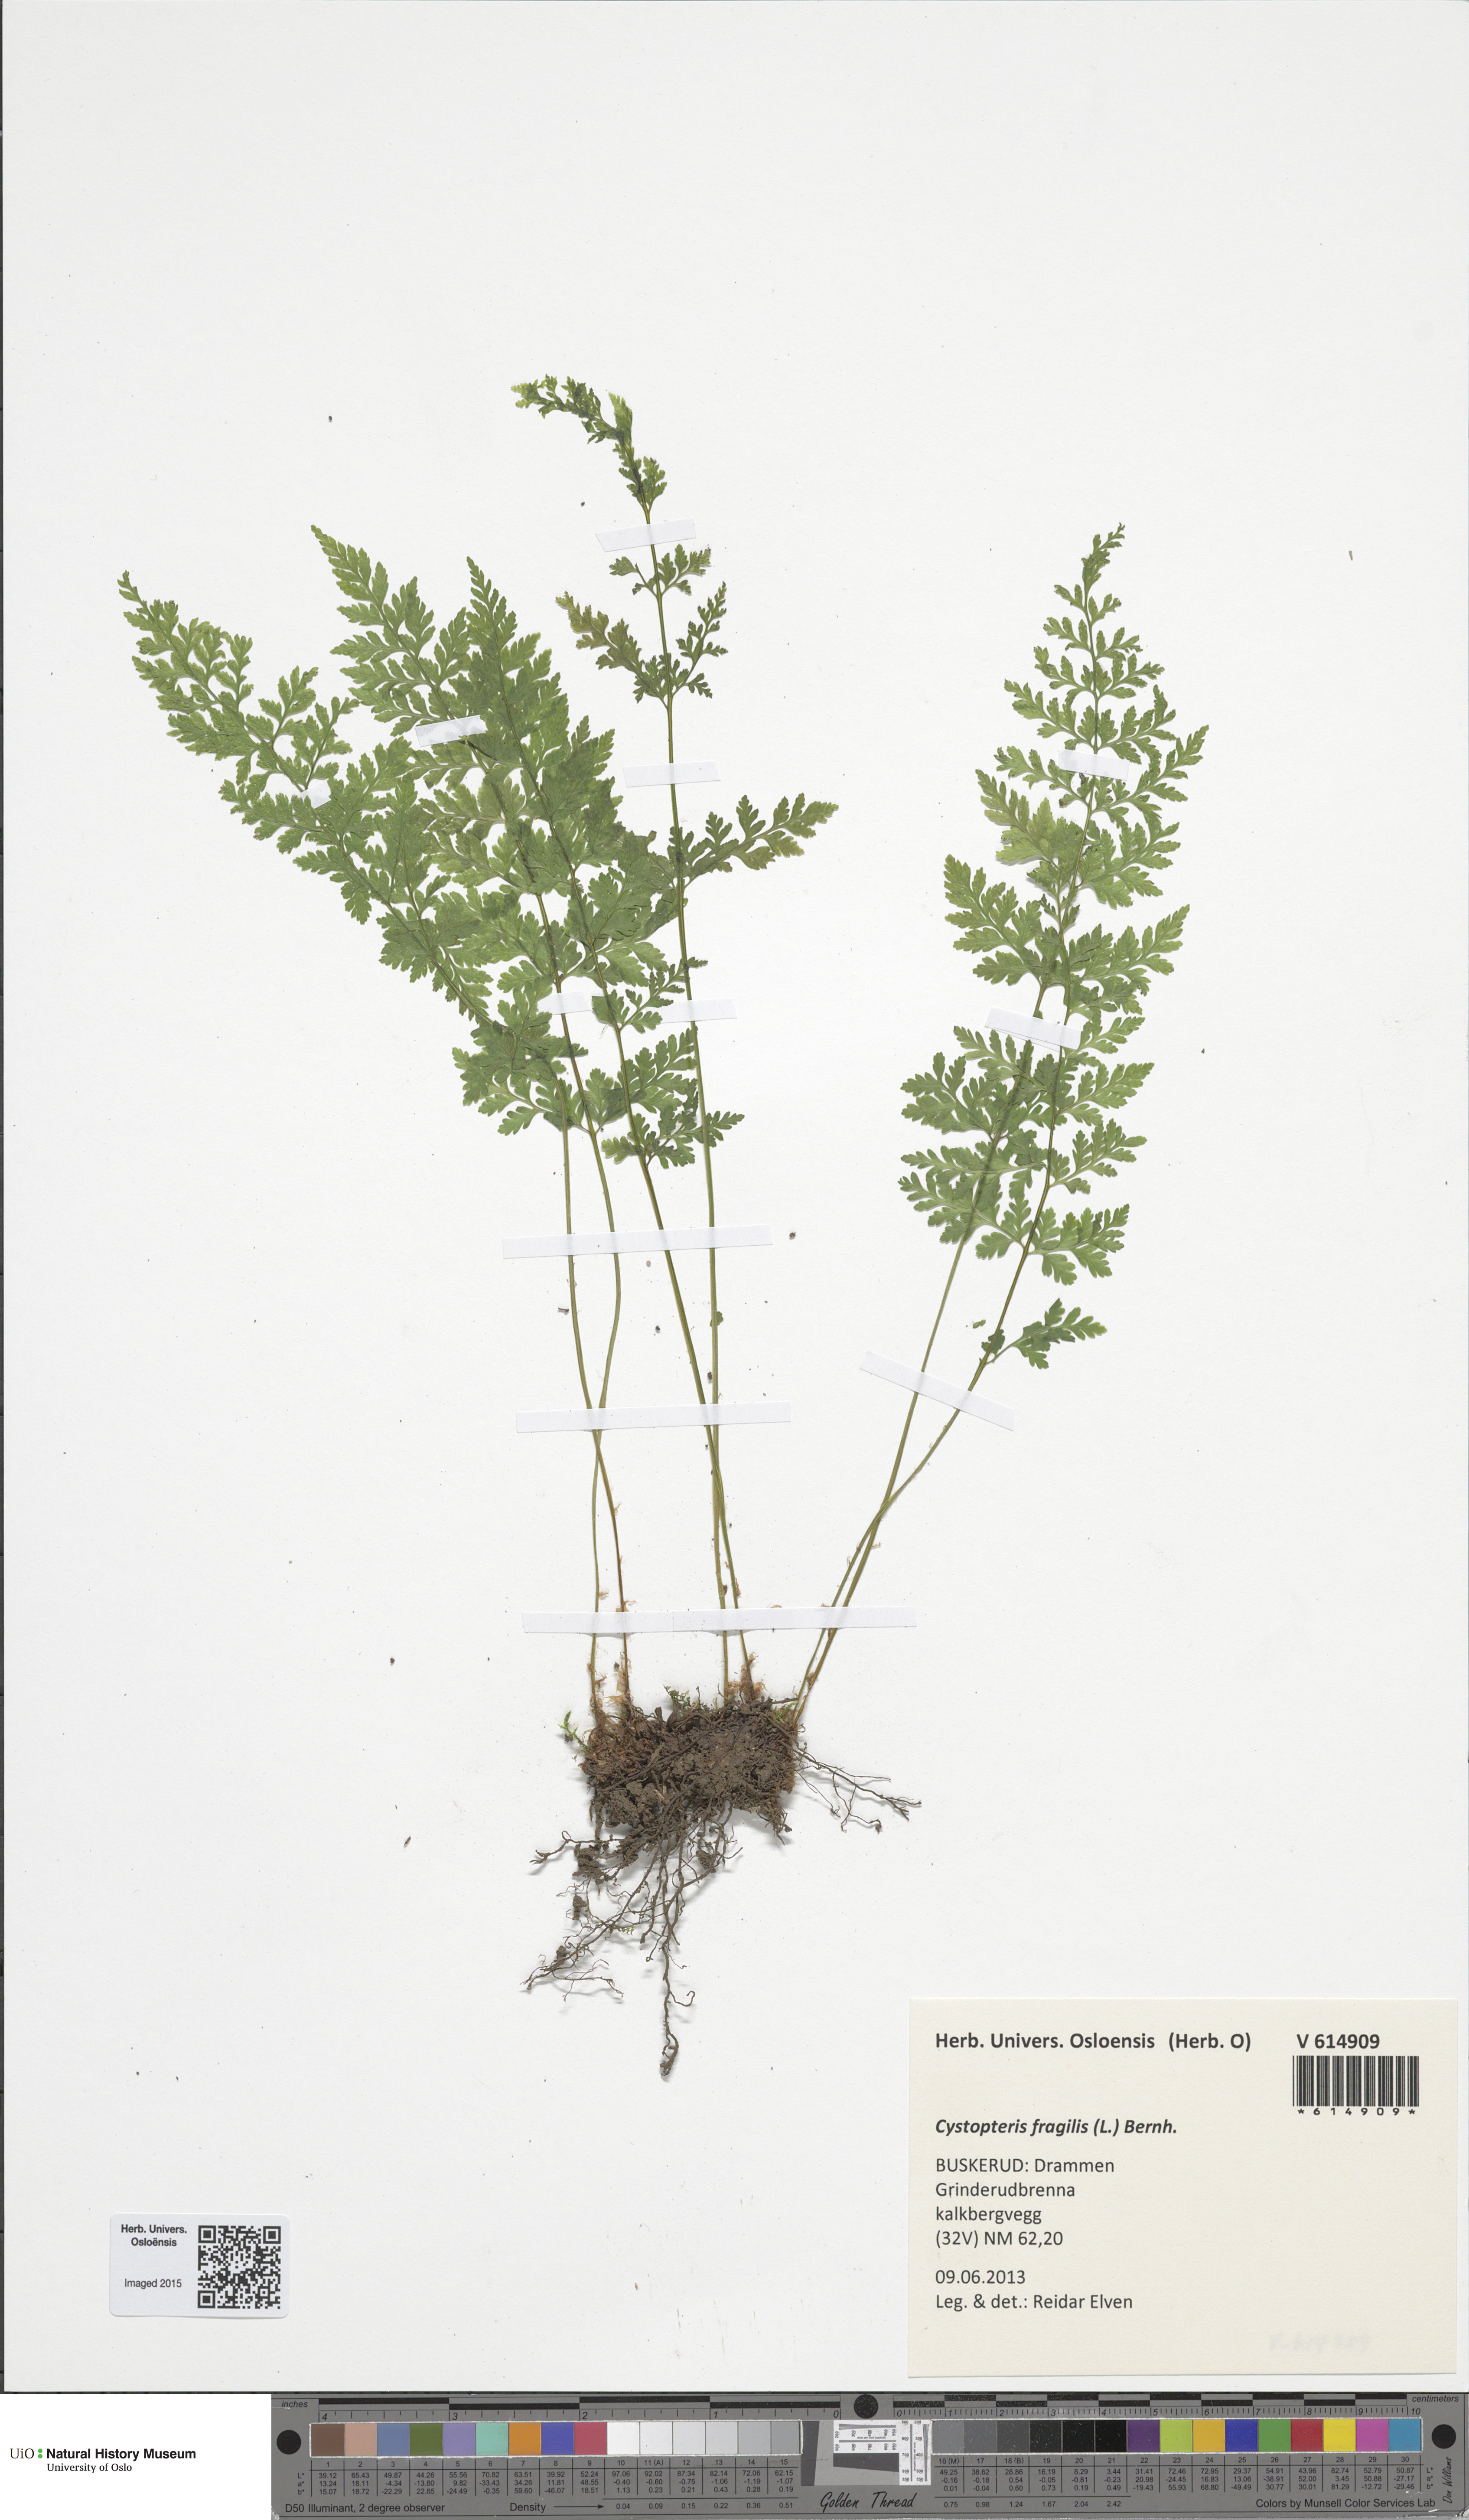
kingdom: Plantae
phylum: Tracheophyta
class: Polypodiopsida
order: Polypodiales
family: Cystopteridaceae
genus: Cystopteris
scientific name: Cystopteris fragilis
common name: Brittle bladder fern
